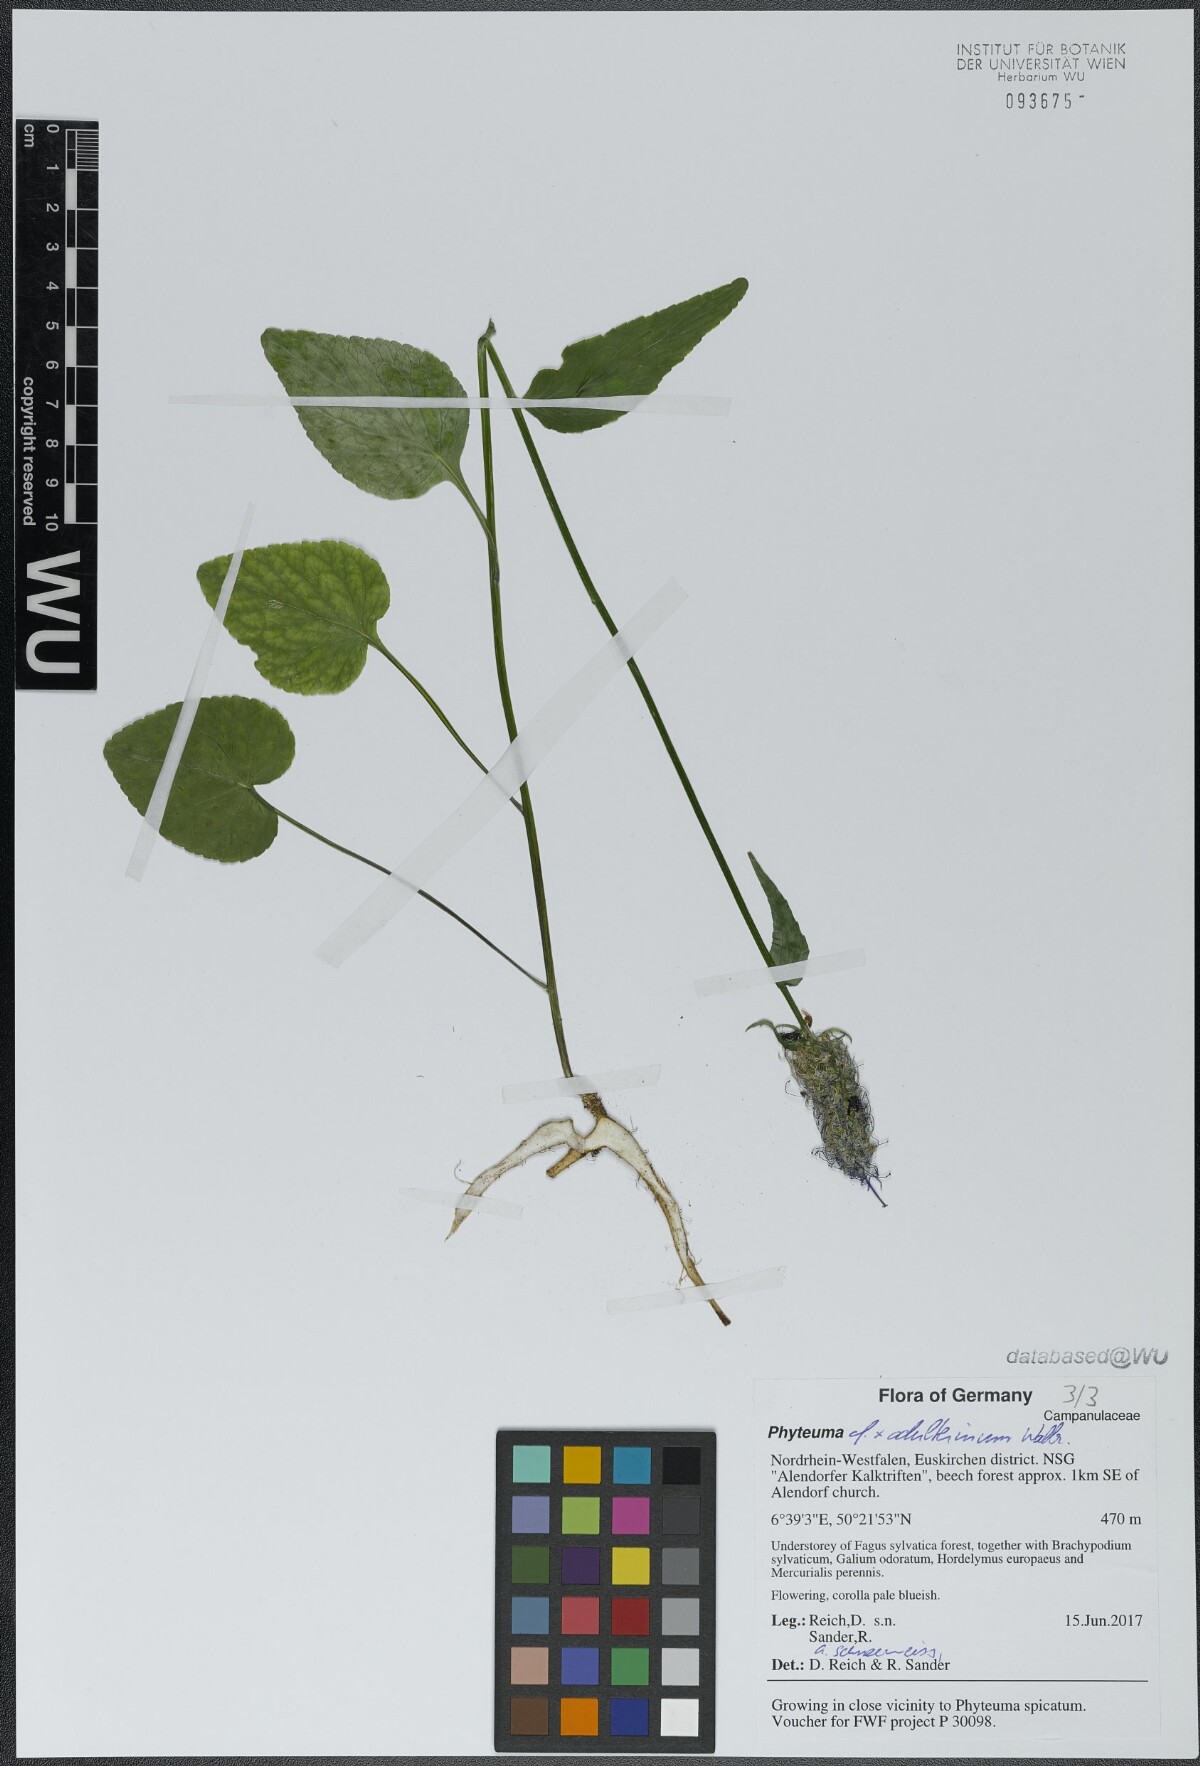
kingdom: Plantae
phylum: Tracheophyta
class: Magnoliopsida
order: Asterales
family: Campanulaceae
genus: Phyteuma
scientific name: Phyteuma
